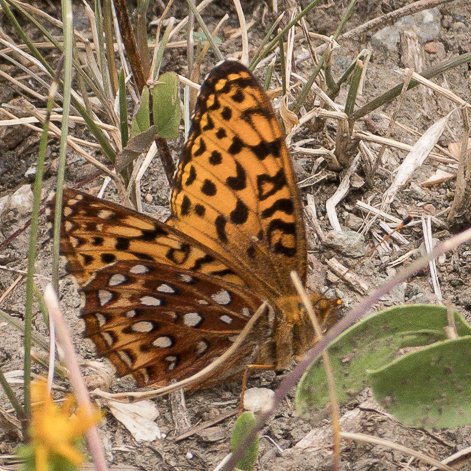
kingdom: Animalia
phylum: Arthropoda
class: Insecta
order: Lepidoptera
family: Nymphalidae
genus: Speyeria
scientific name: Speyeria aphrodite
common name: Aphrodite Fritillary
